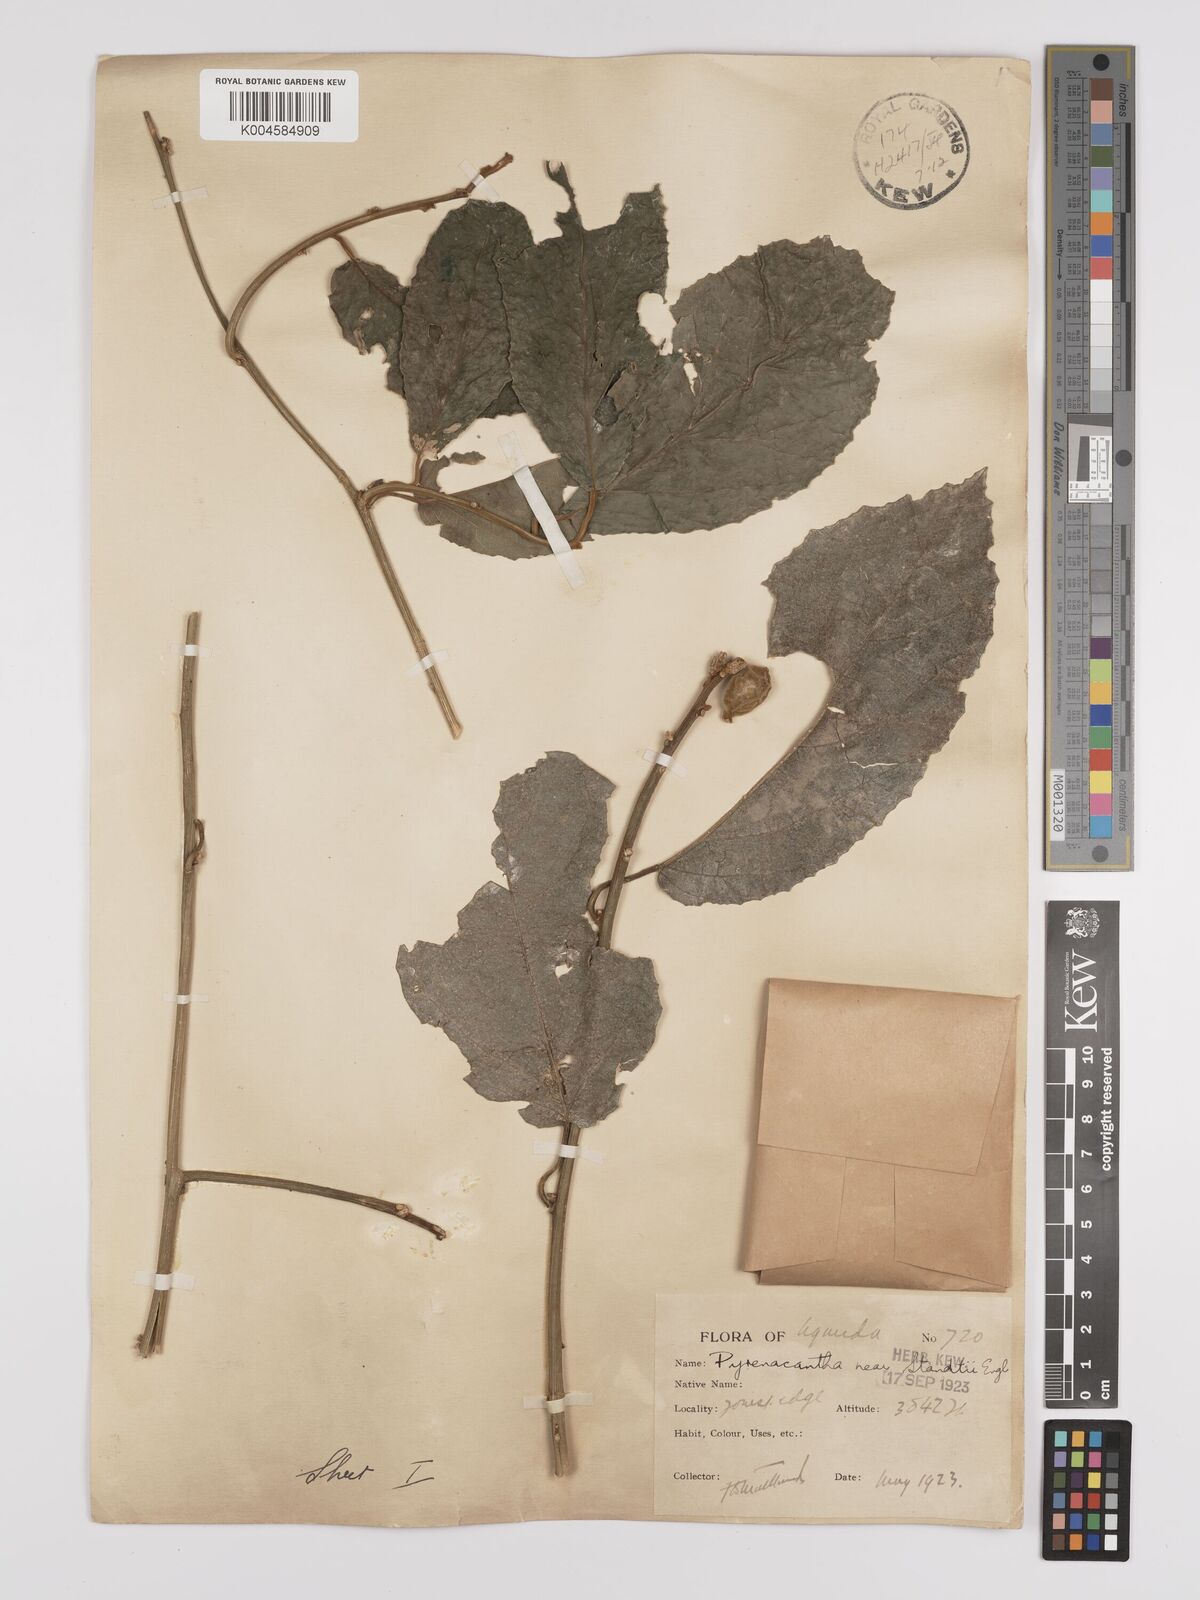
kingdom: Plantae
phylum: Tracheophyta
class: Magnoliopsida
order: Icacinales
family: Icacinaceae
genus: Pyrenacantha
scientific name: Pyrenacantha staudtii
